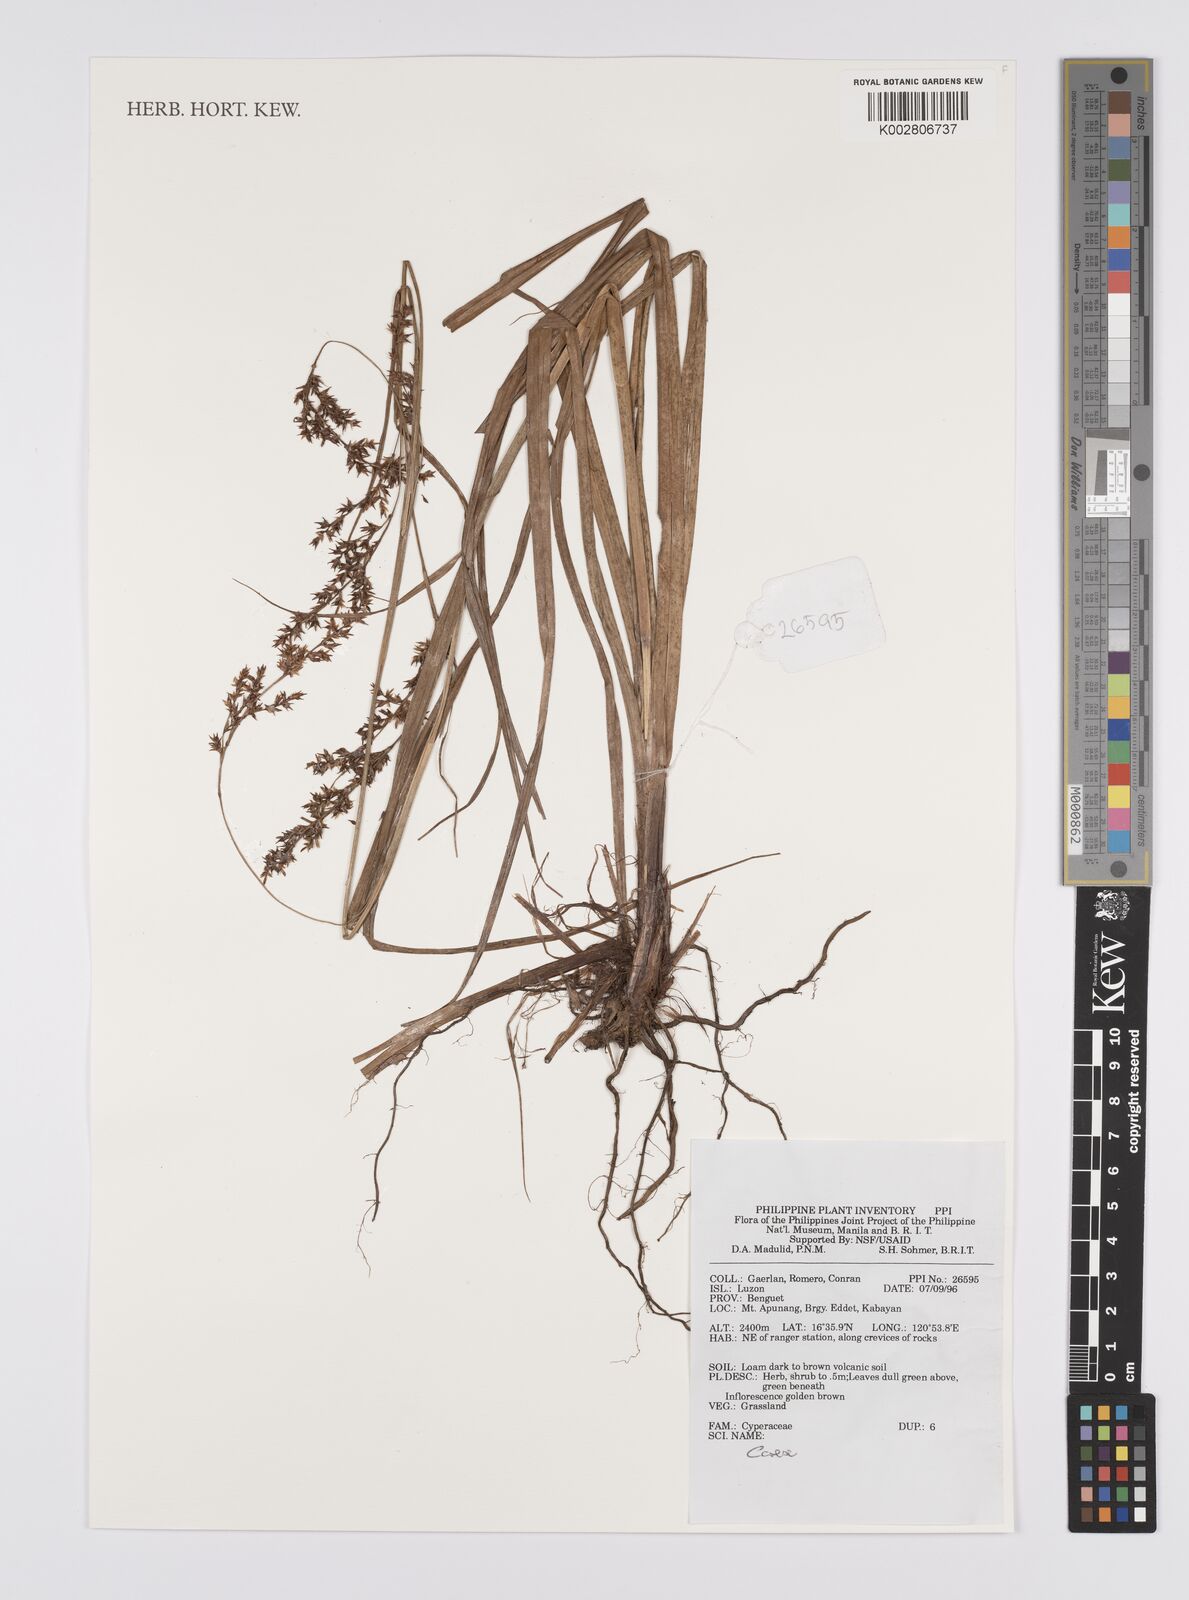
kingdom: Plantae
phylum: Tracheophyta
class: Liliopsida
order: Poales
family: Cyperaceae
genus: Carex
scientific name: Carex
